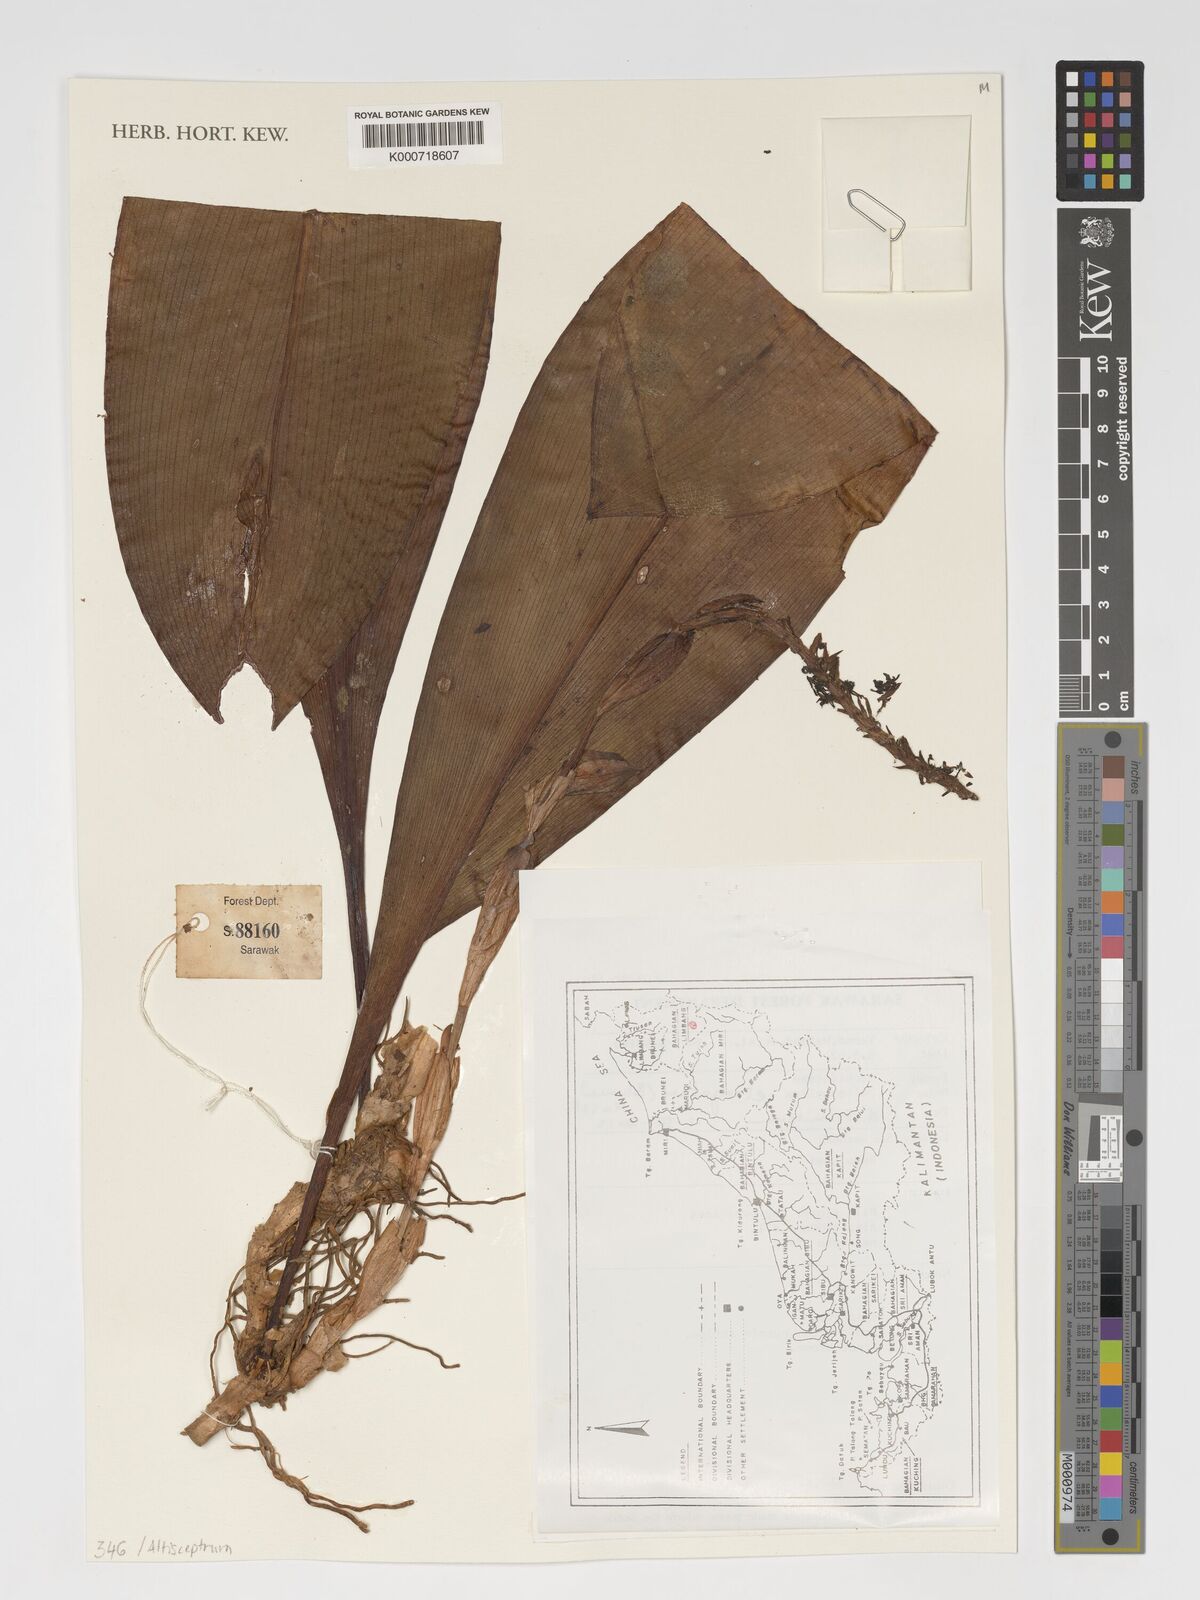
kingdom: Plantae
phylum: Tracheophyta
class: Liliopsida
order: Asparagales
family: Orchidaceae
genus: Bulbophyllum
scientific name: Bulbophyllum elongatum
